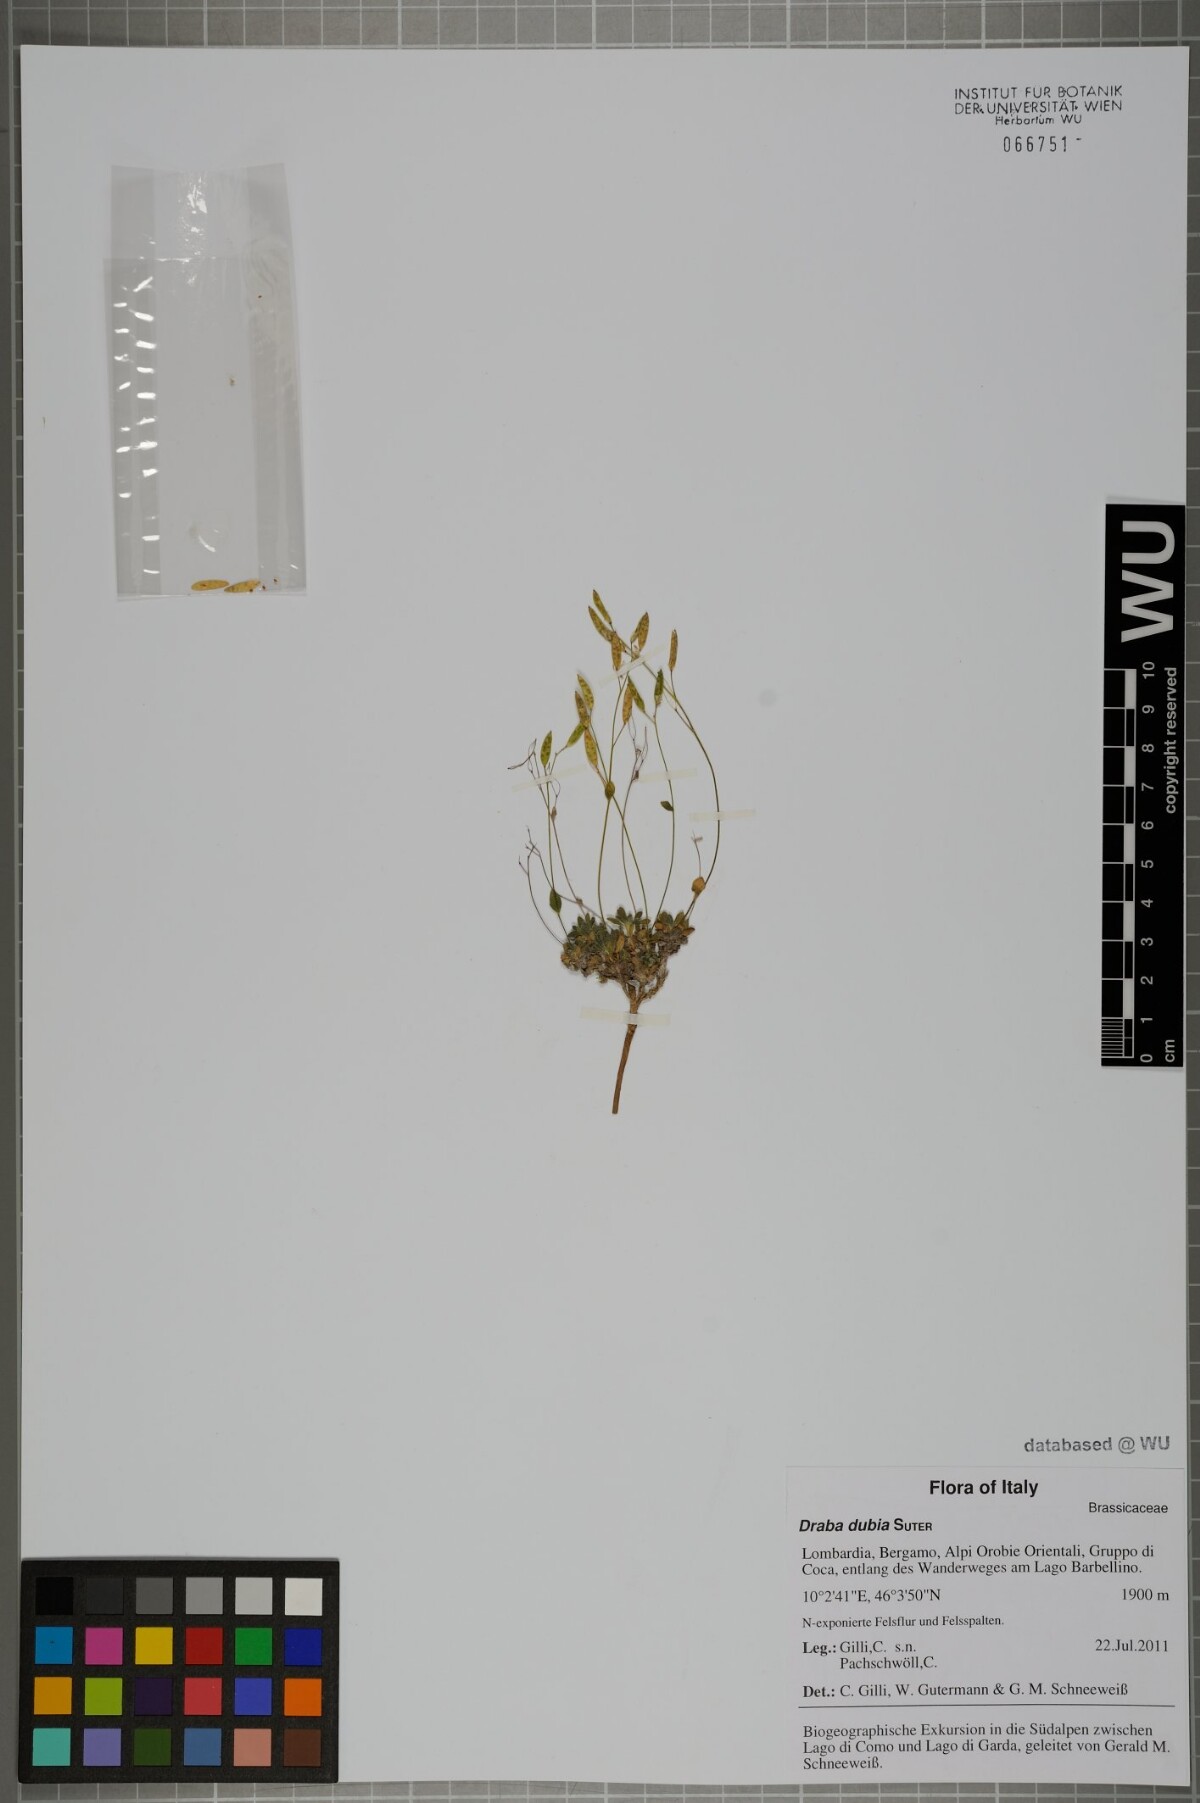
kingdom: Plantae
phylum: Tracheophyta
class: Magnoliopsida
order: Brassicales
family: Brassicaceae
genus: Draba
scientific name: Draba dubia
